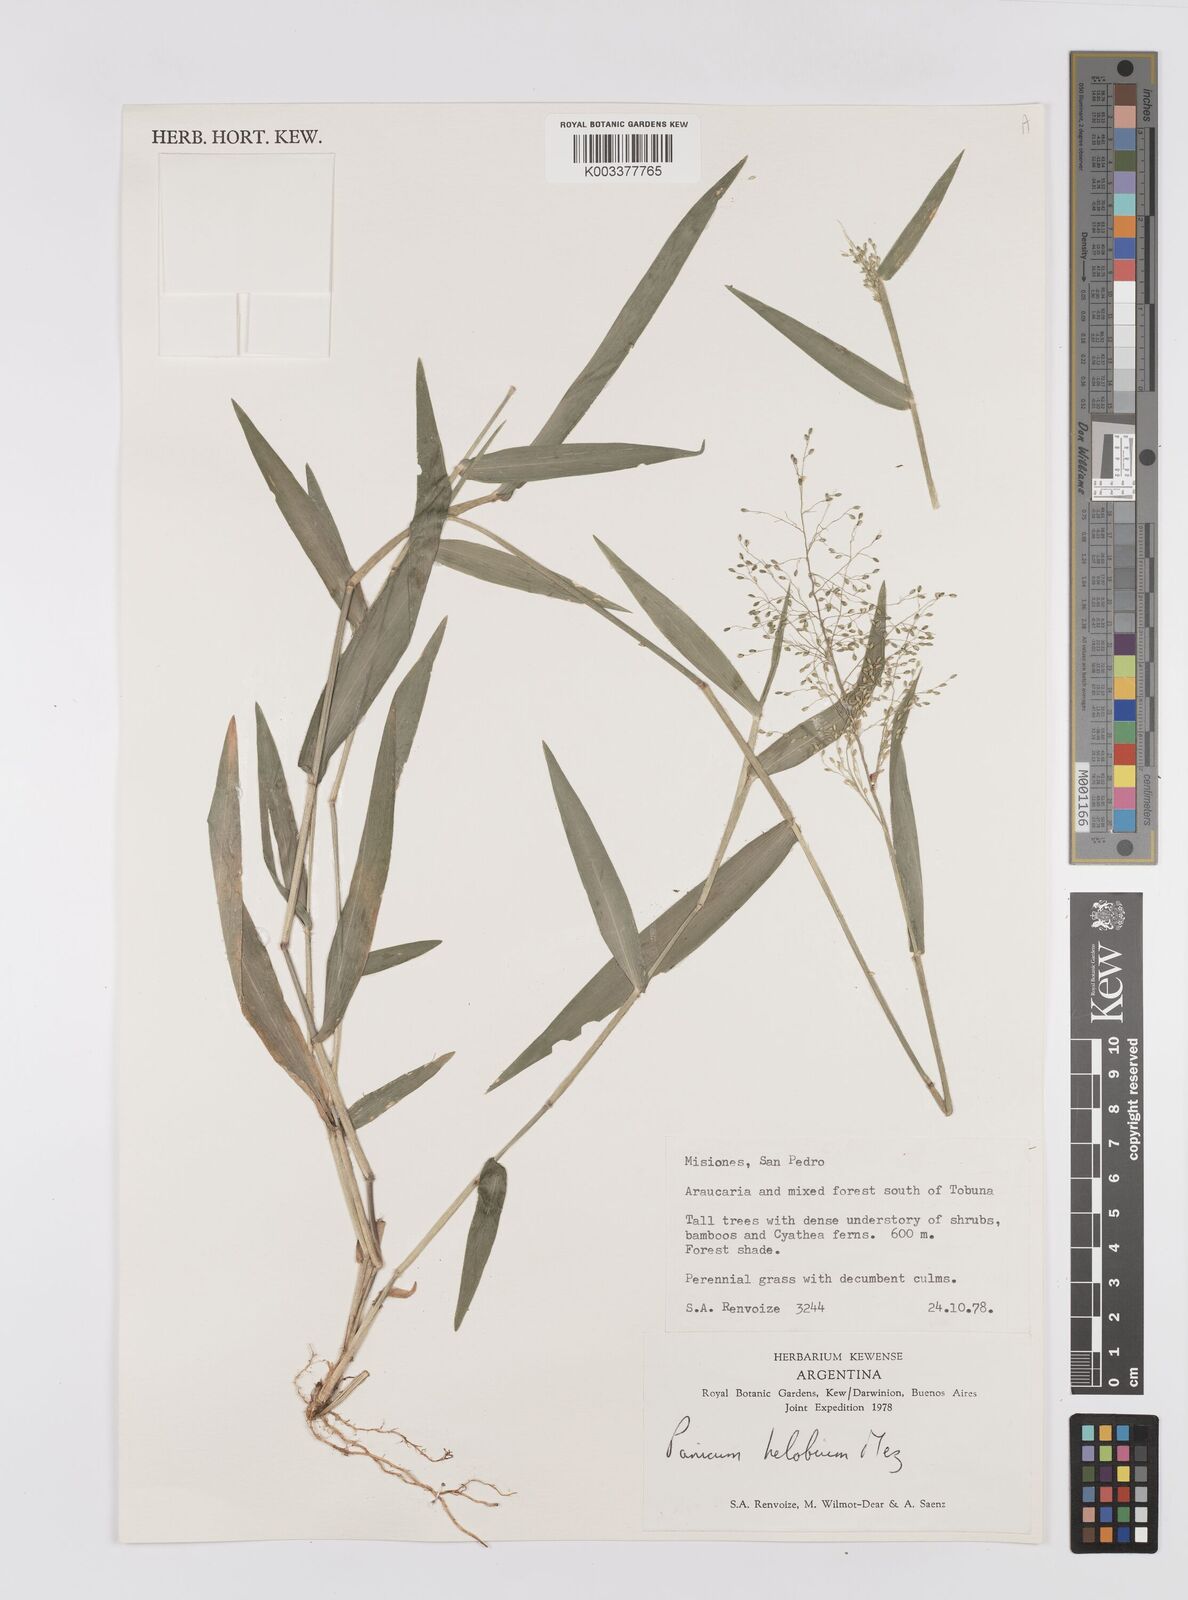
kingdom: Plantae
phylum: Tracheophyta
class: Liliopsida
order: Poales
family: Poaceae
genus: Trichanthecium
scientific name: Trichanthecium schwackeanum
